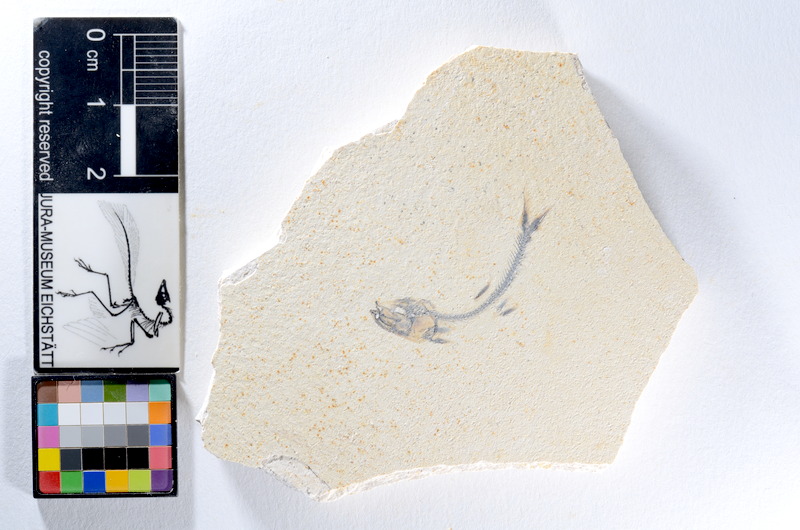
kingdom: Animalia
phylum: Chordata
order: Salmoniformes
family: Orthogonikleithridae
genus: Orthogonikleithrus
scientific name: Orthogonikleithrus hoelli
